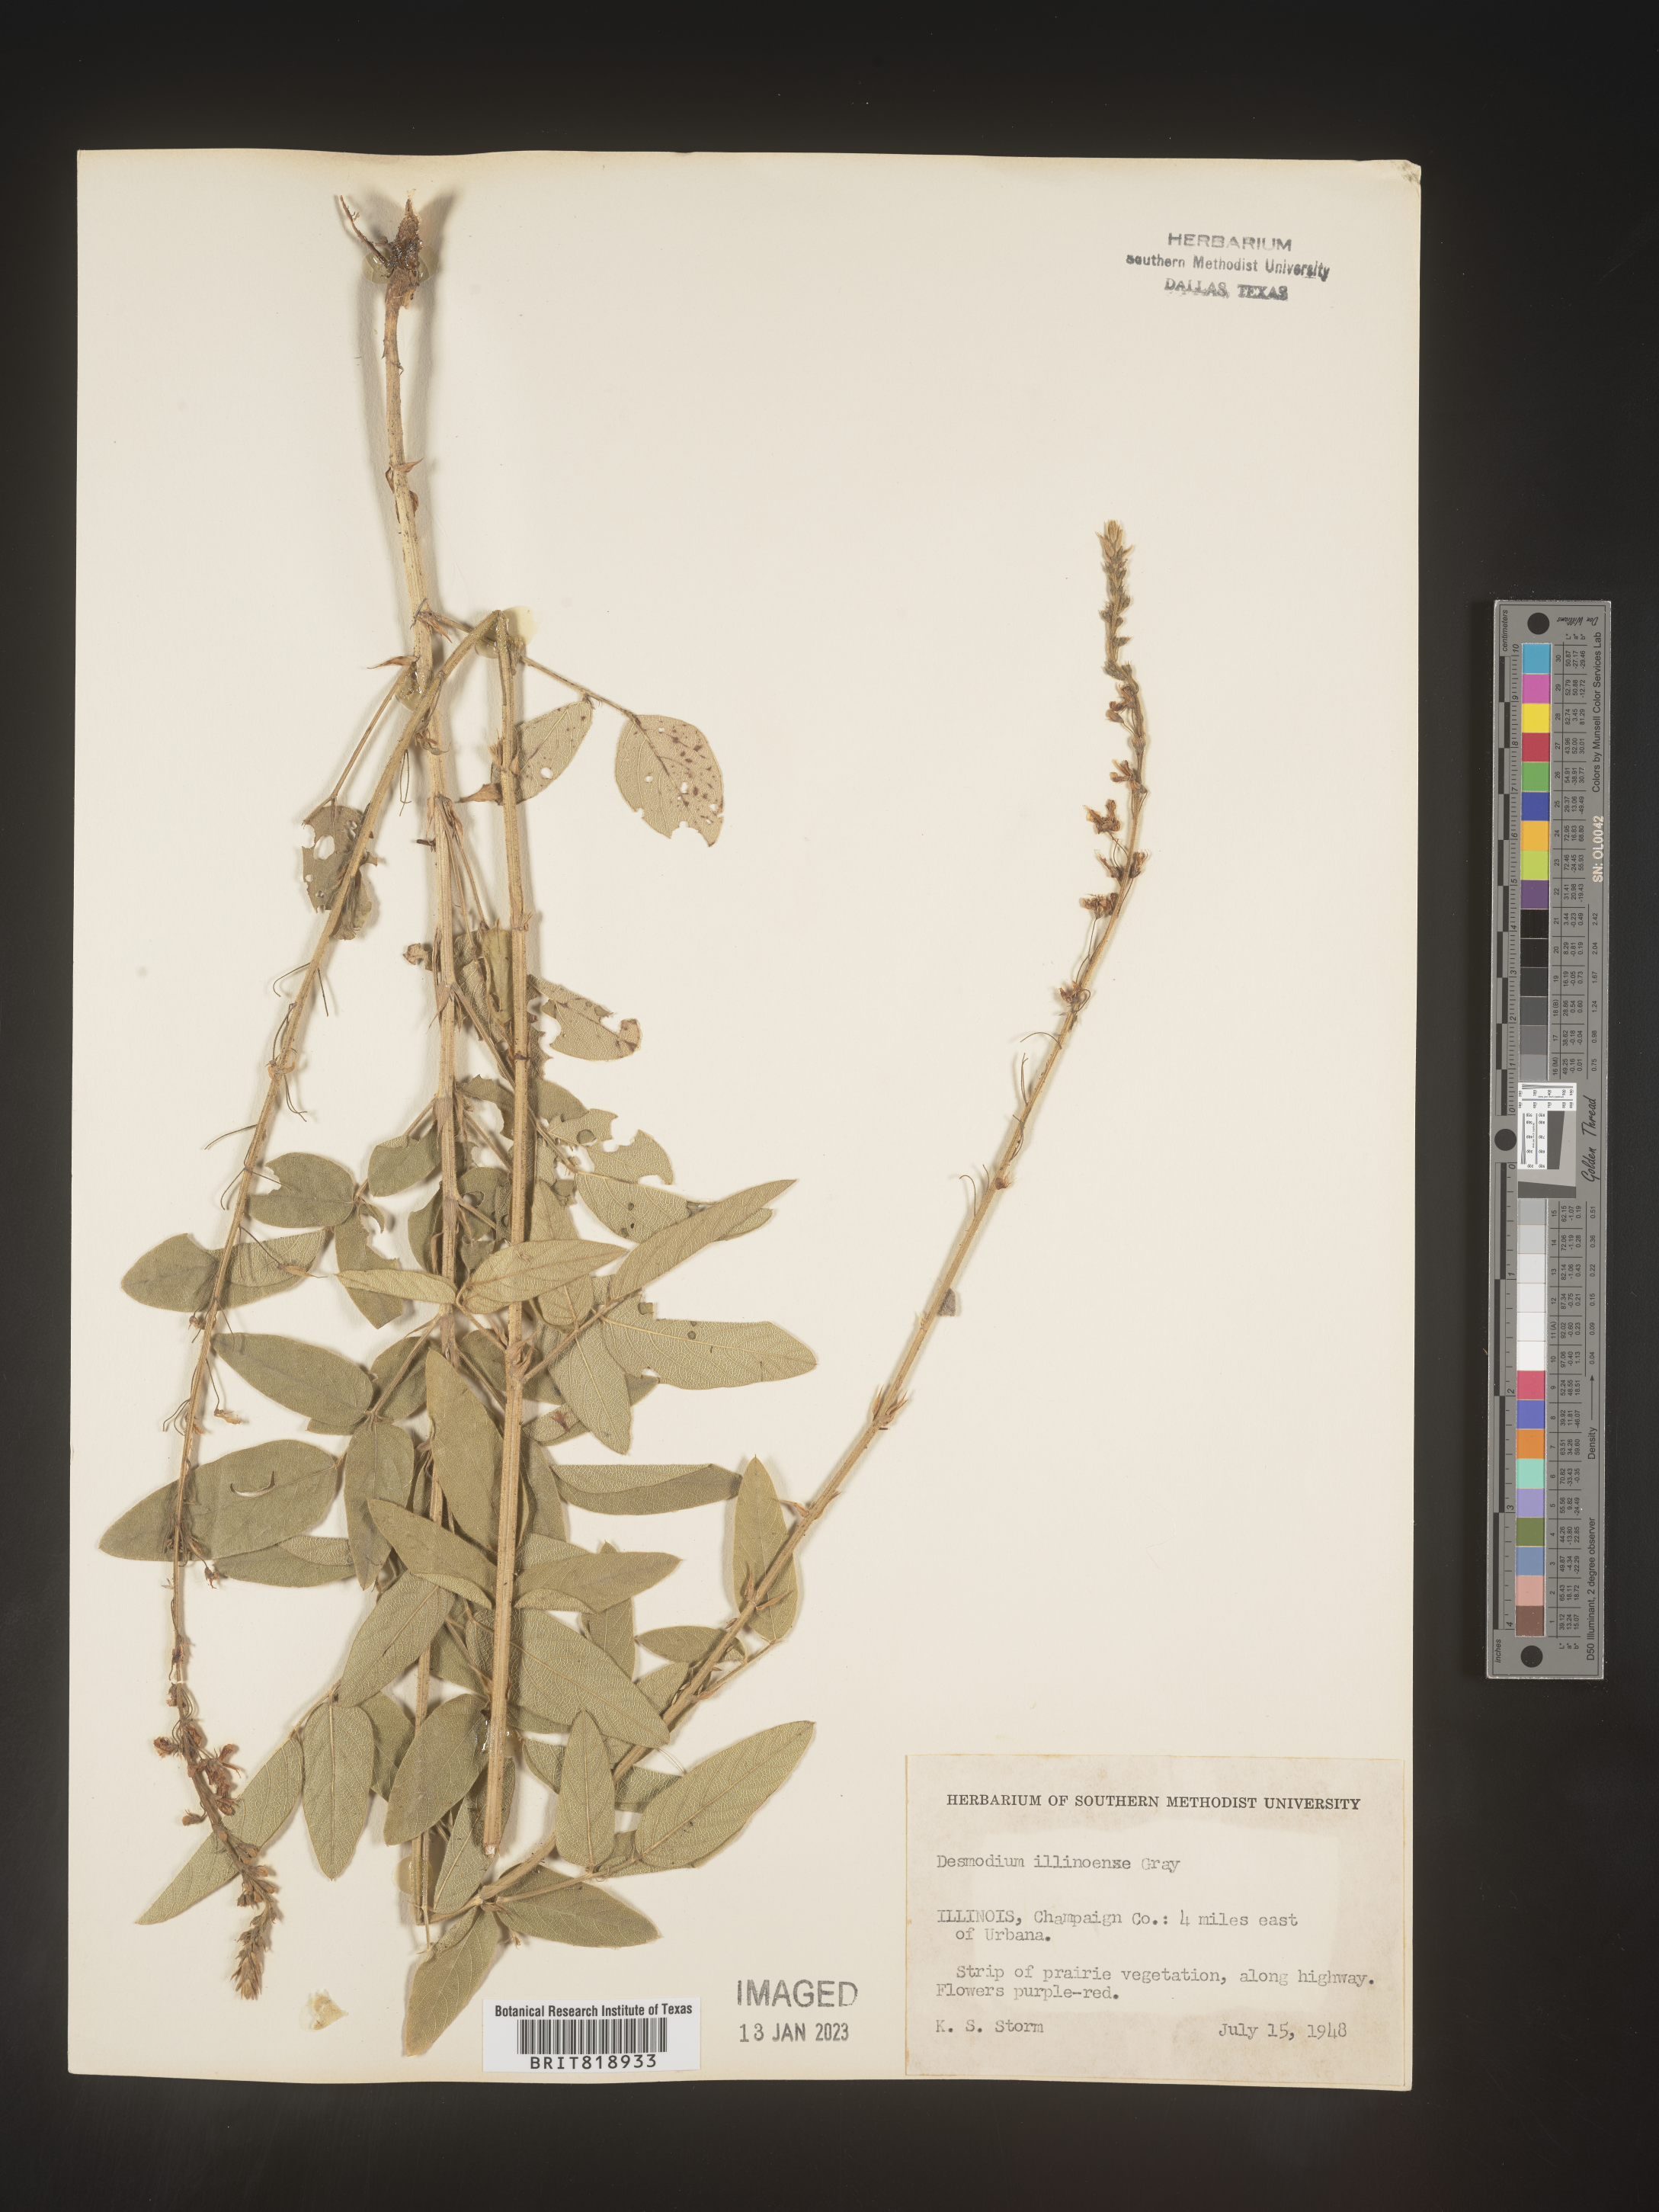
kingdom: Plantae
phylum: Tracheophyta
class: Magnoliopsida
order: Fabales
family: Fabaceae
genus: Desmodium
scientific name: Desmodium illinoense
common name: Illinois tick-clover
